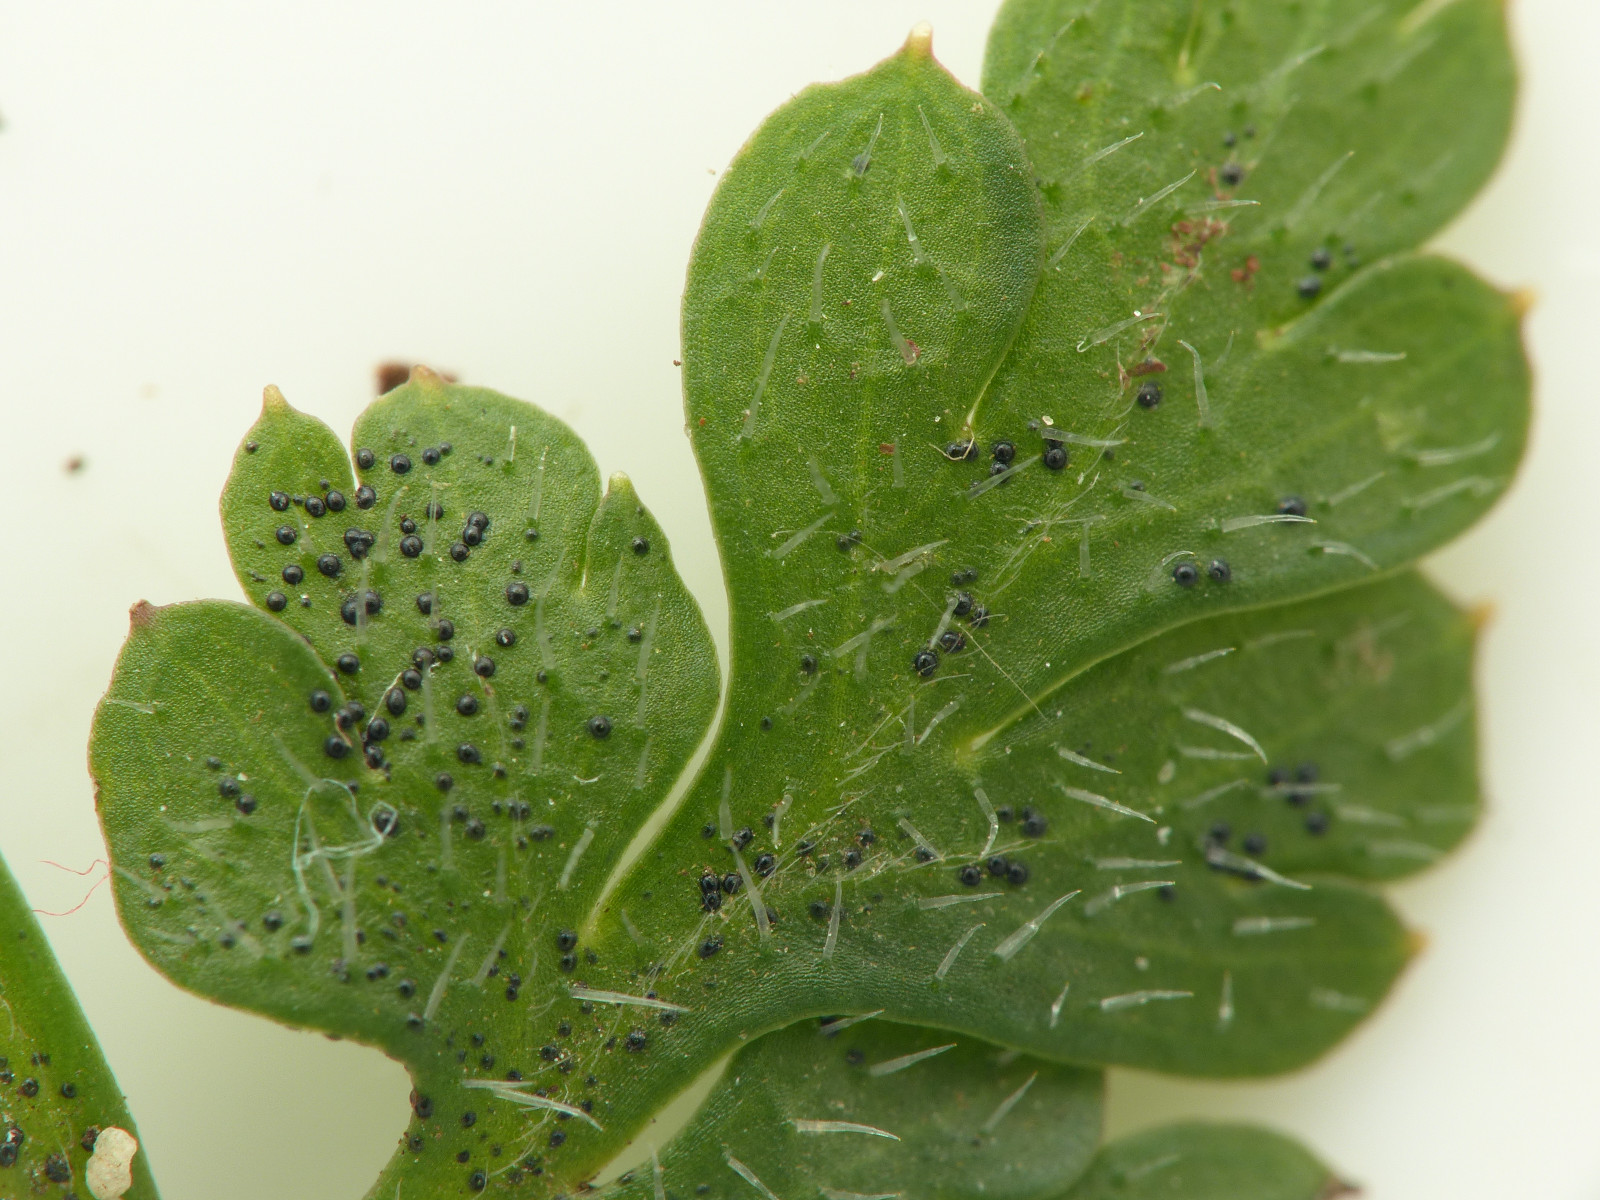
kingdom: Fungi
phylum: Ascomycota
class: Dothideomycetes
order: Venturiales
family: Venturiaceae
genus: Coleroa
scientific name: Coleroa robertiani
